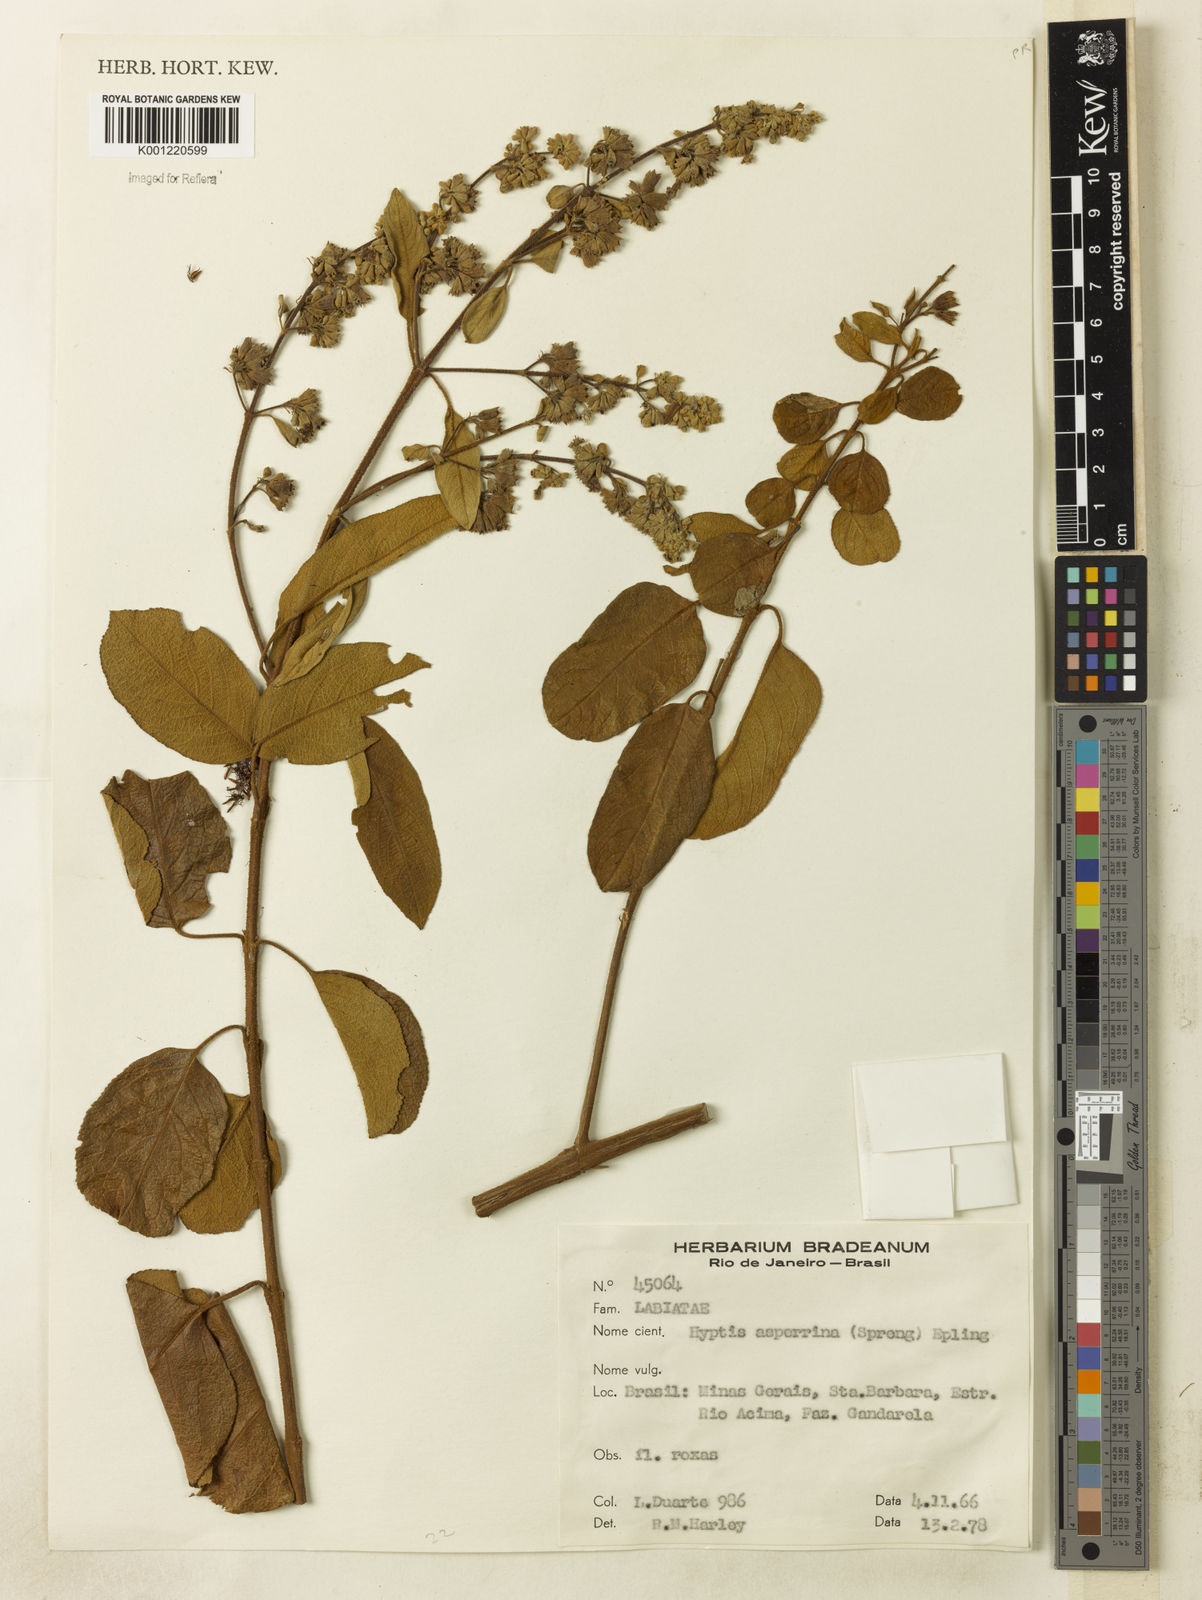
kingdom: Plantae
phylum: Tracheophyta
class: Magnoliopsida
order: Lamiales
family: Lamiaceae
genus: Hyptidendron
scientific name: Hyptidendron asperrimum
